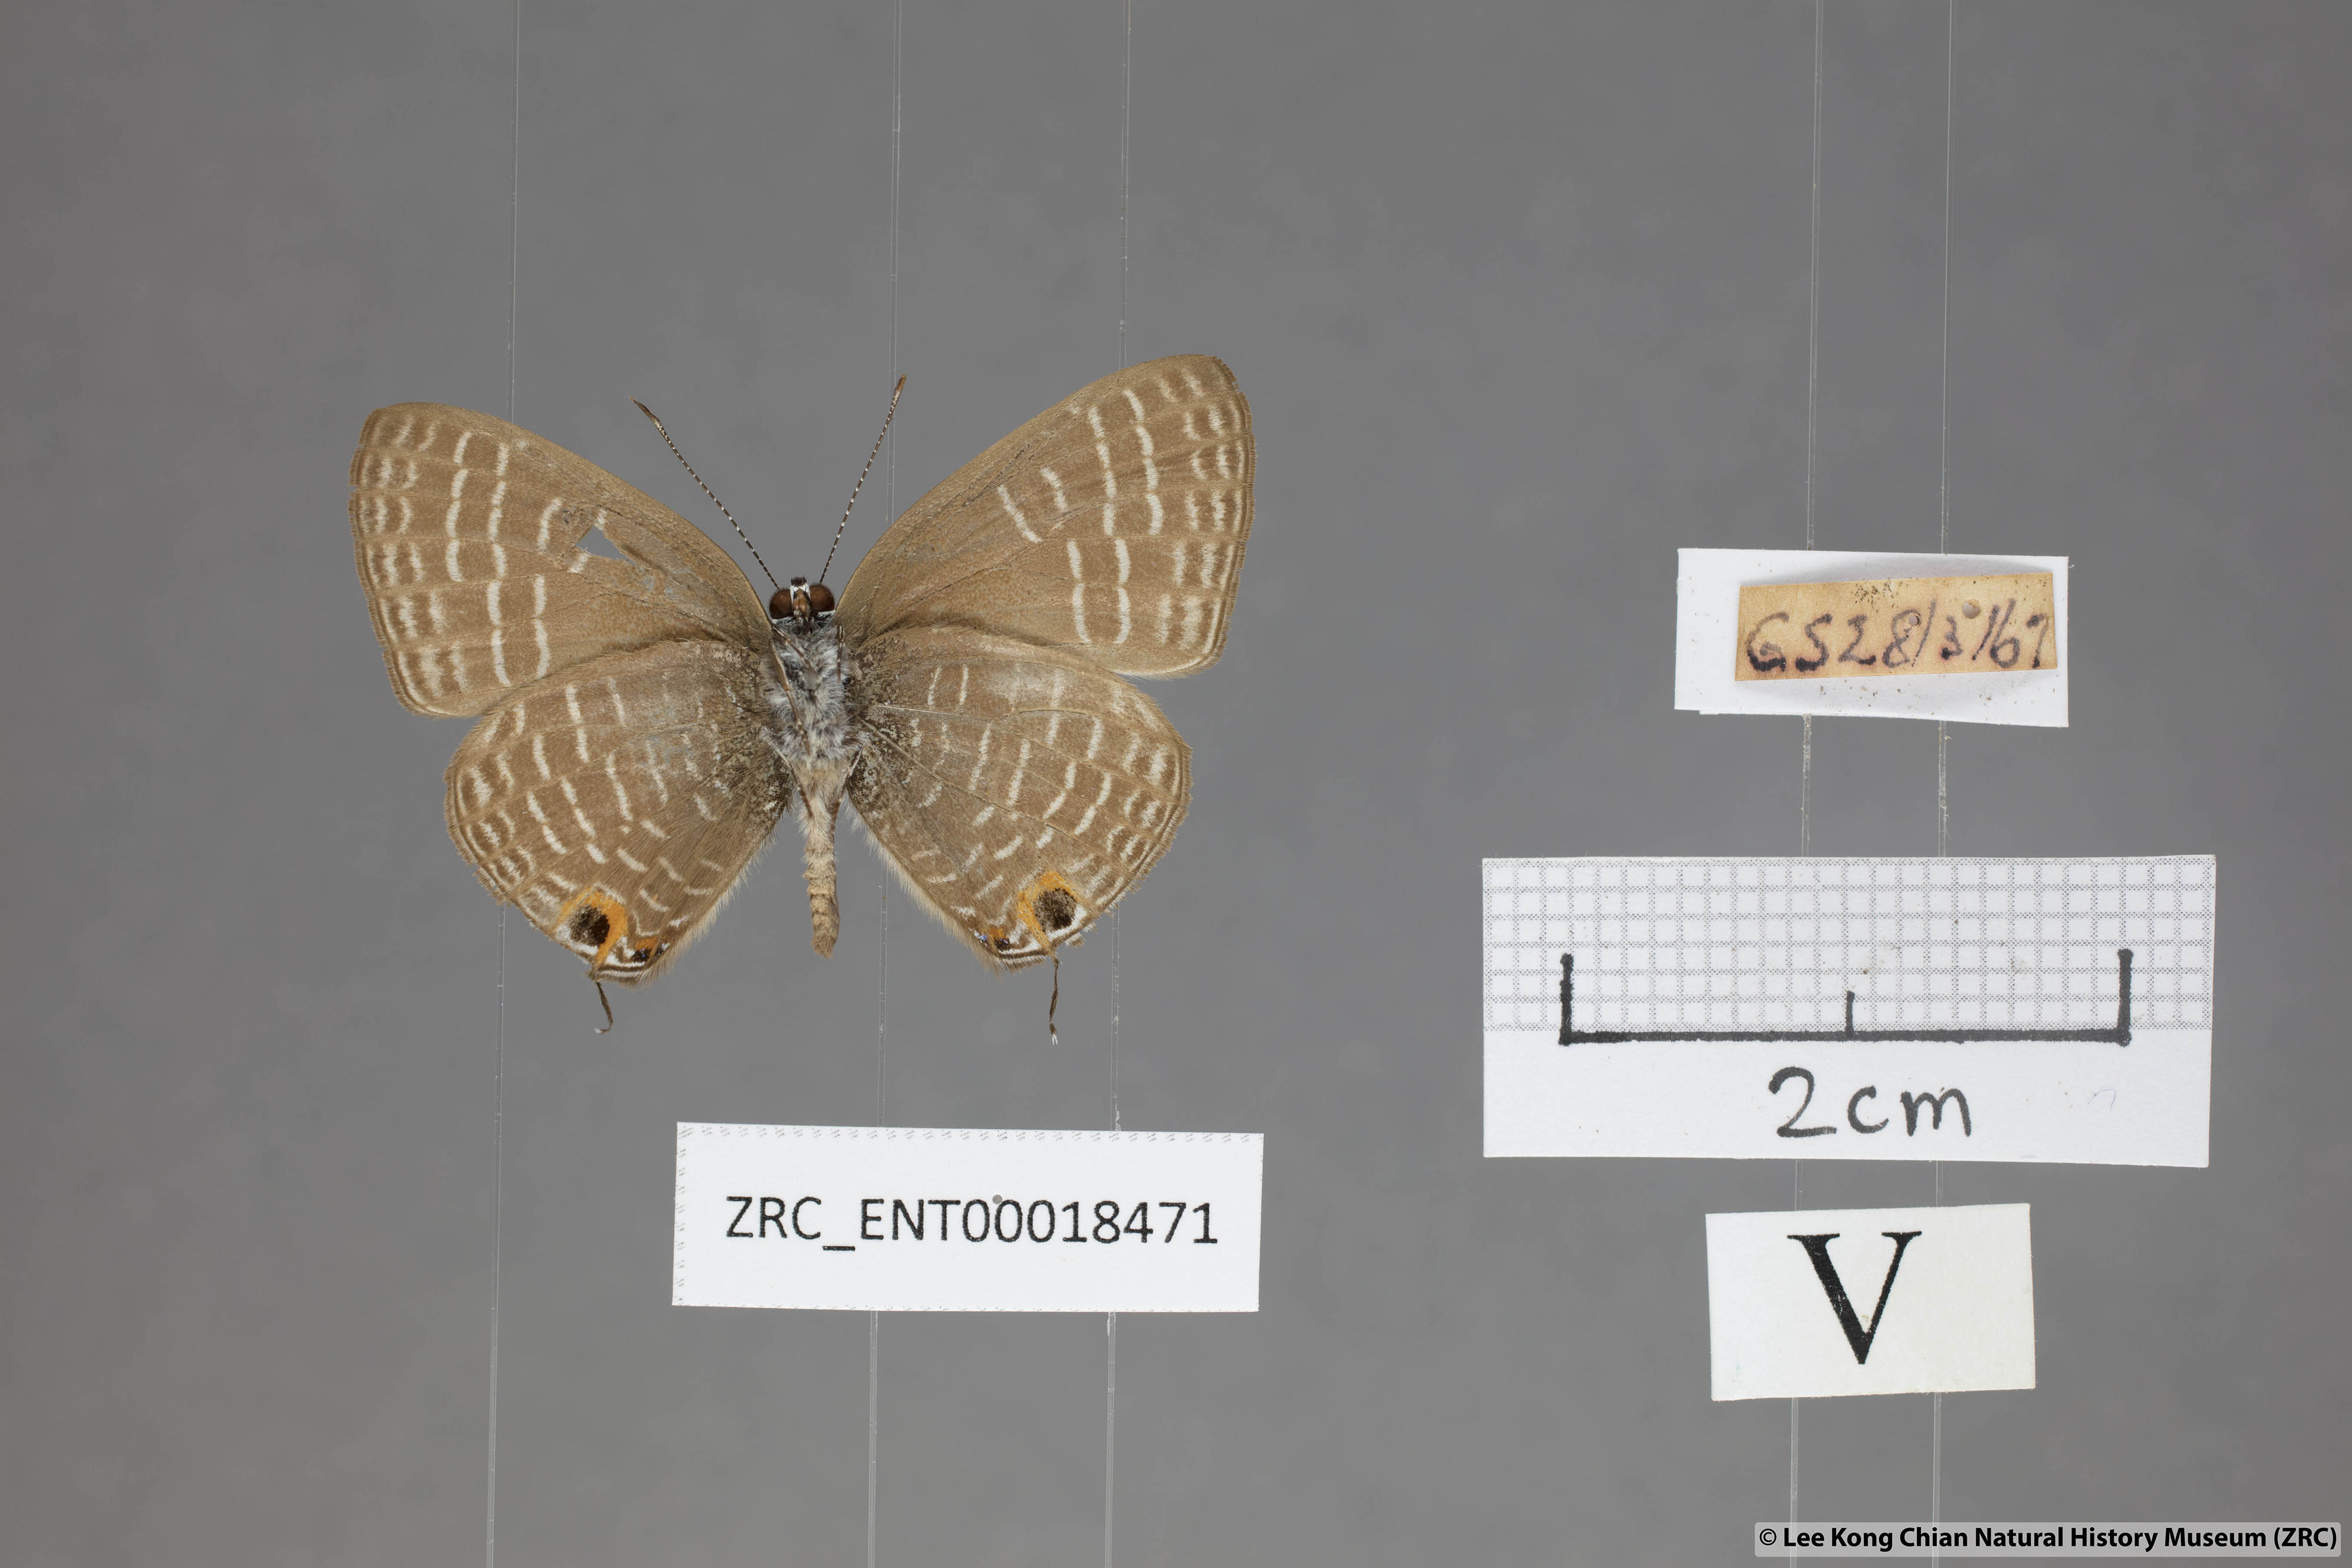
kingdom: Animalia
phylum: Arthropoda
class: Insecta
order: Lepidoptera
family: Lycaenidae
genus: Nacaduba
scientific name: Nacaduba solta
